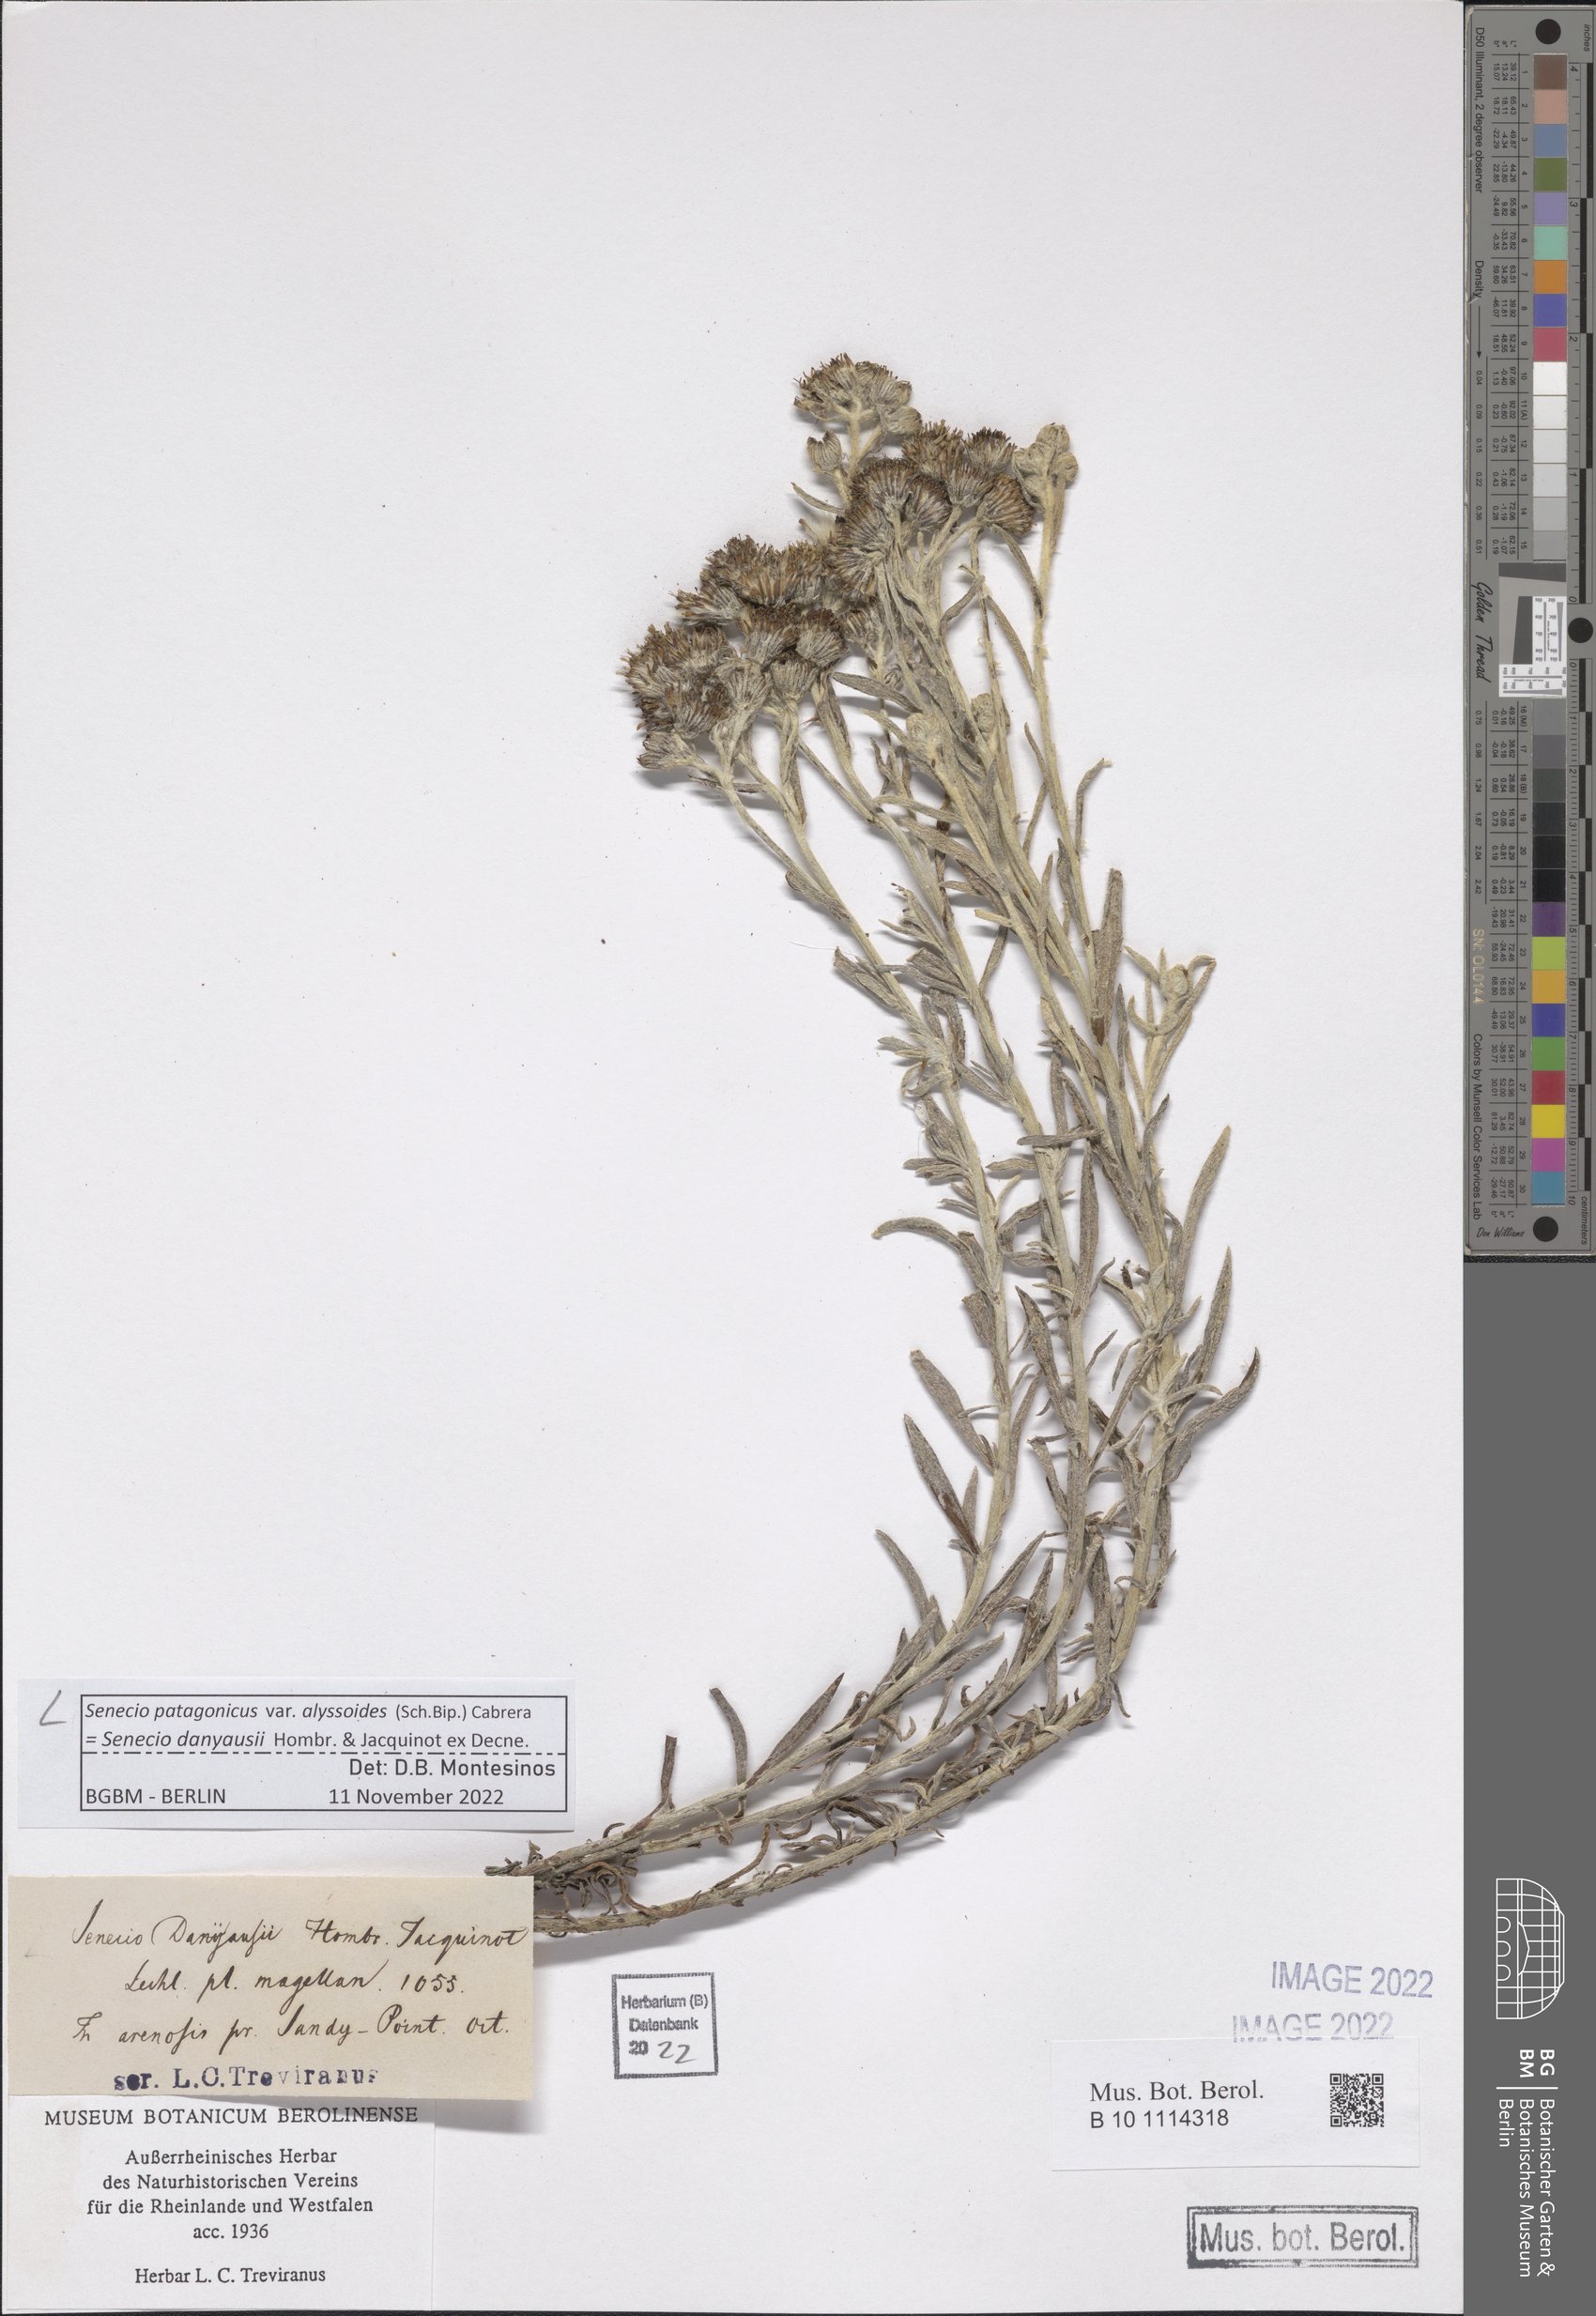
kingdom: Plantae
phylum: Tracheophyta
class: Magnoliopsida
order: Asterales
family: Asteraceae
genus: Senecio
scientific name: Senecio patagonicus
